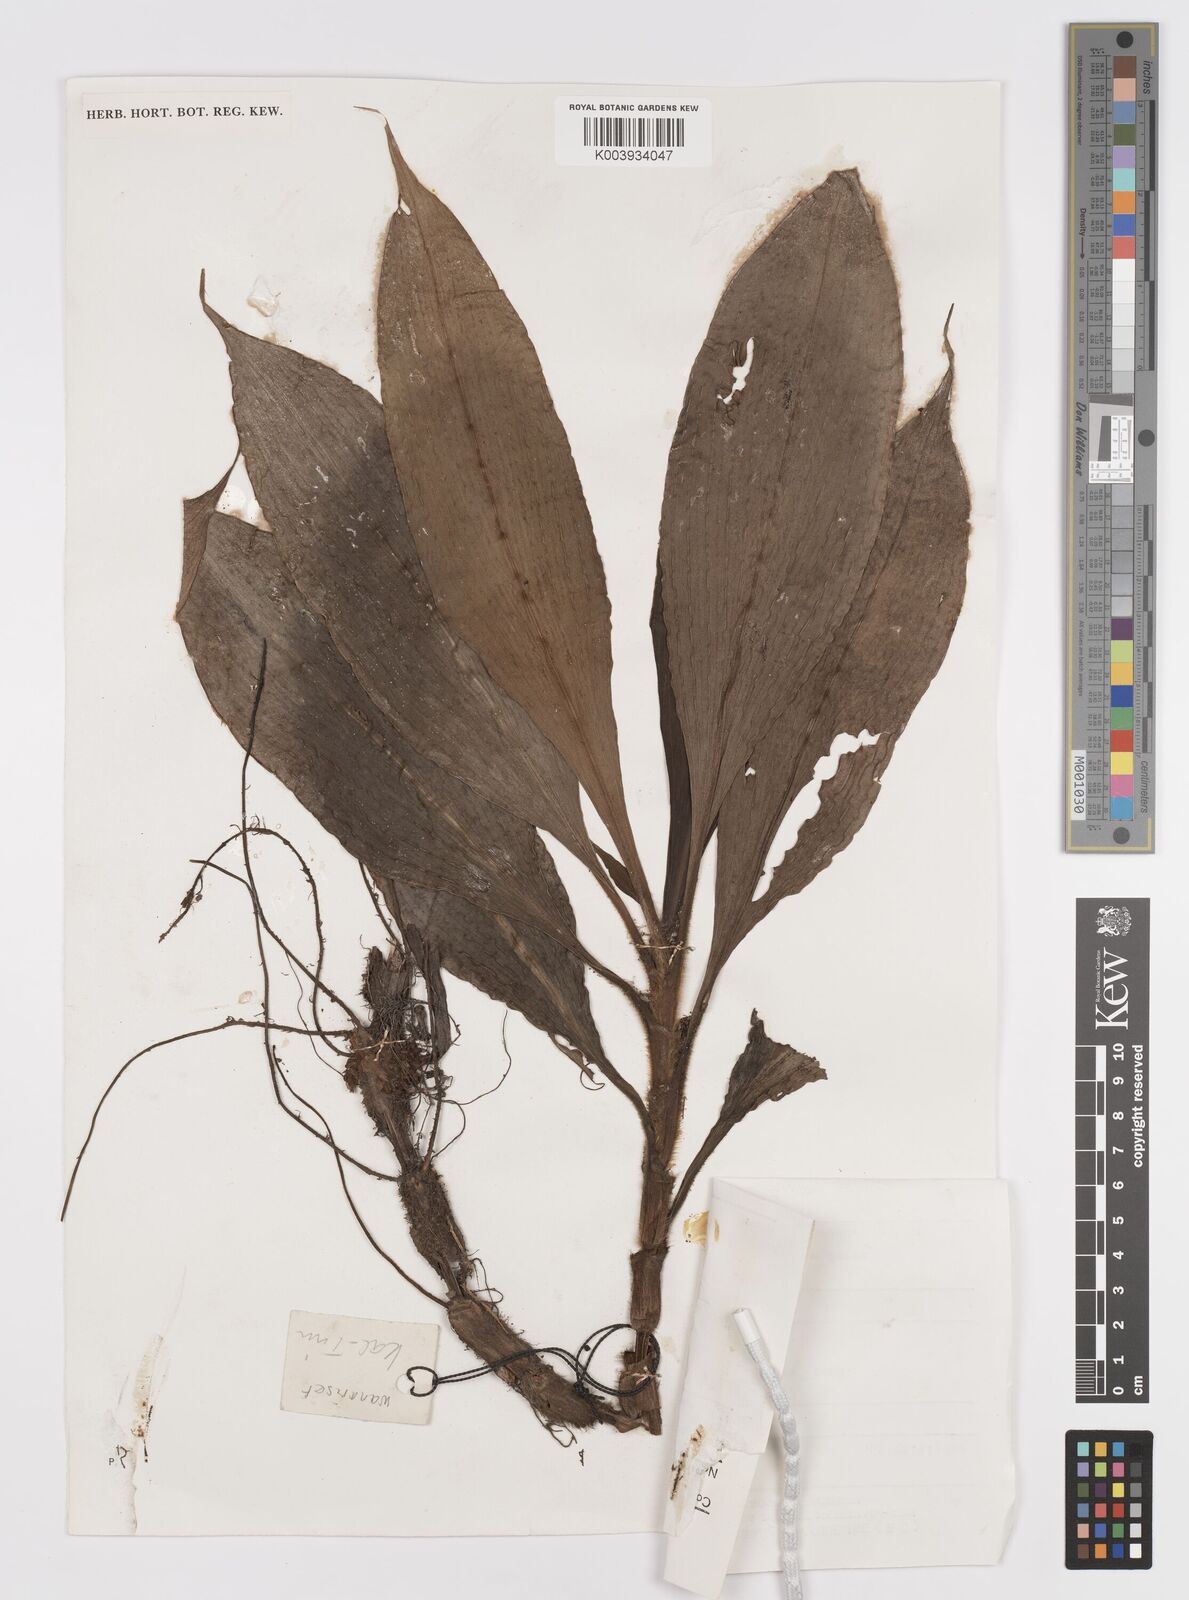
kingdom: Plantae
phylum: Tracheophyta
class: Liliopsida
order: Commelinales
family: Commelinaceae
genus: Amischotolype
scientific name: Amischotolype mollissima
